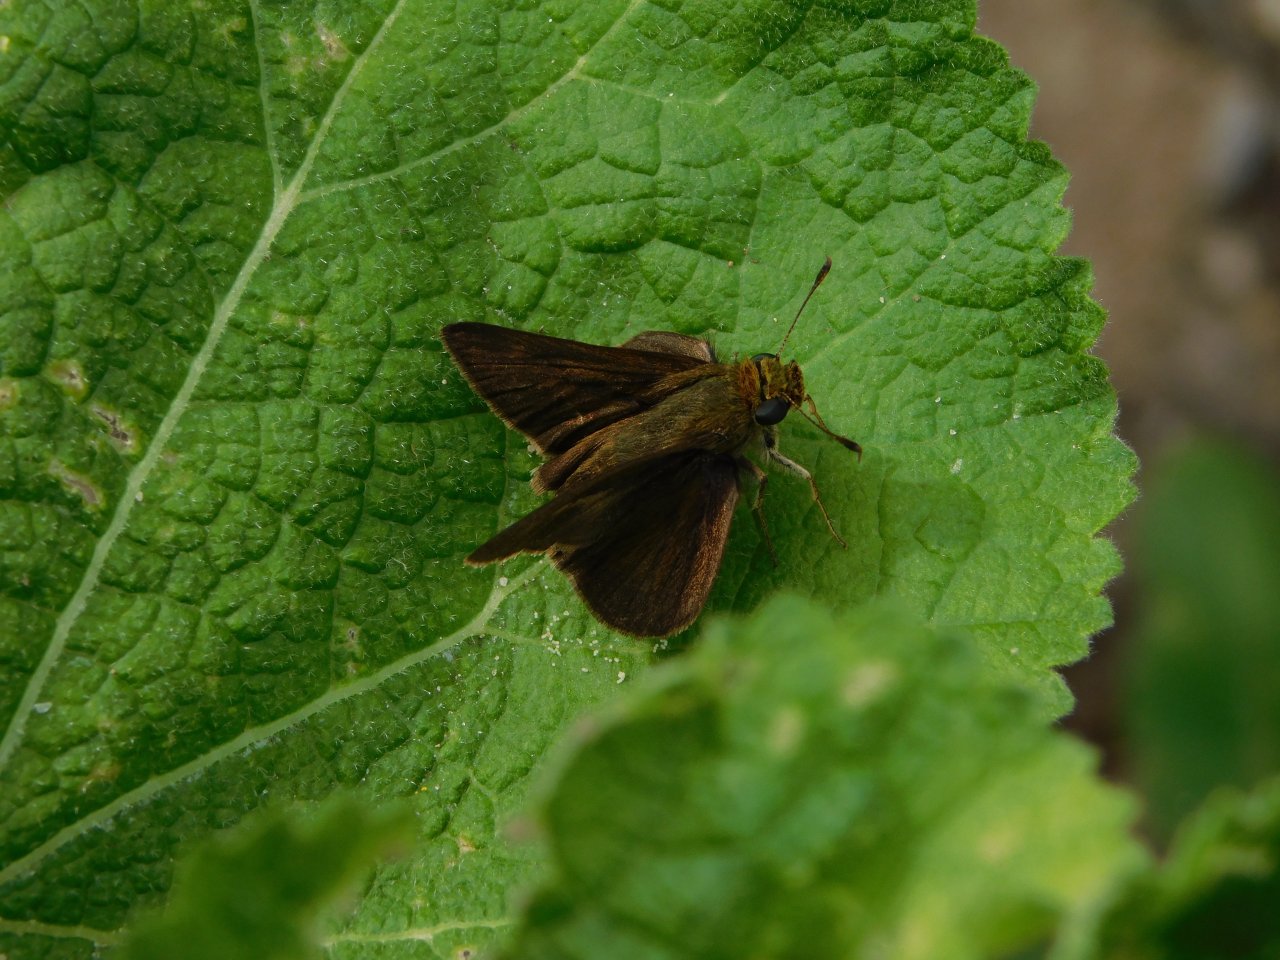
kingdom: Animalia
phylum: Arthropoda
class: Insecta
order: Lepidoptera
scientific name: Lepidoptera
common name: Butterflies
